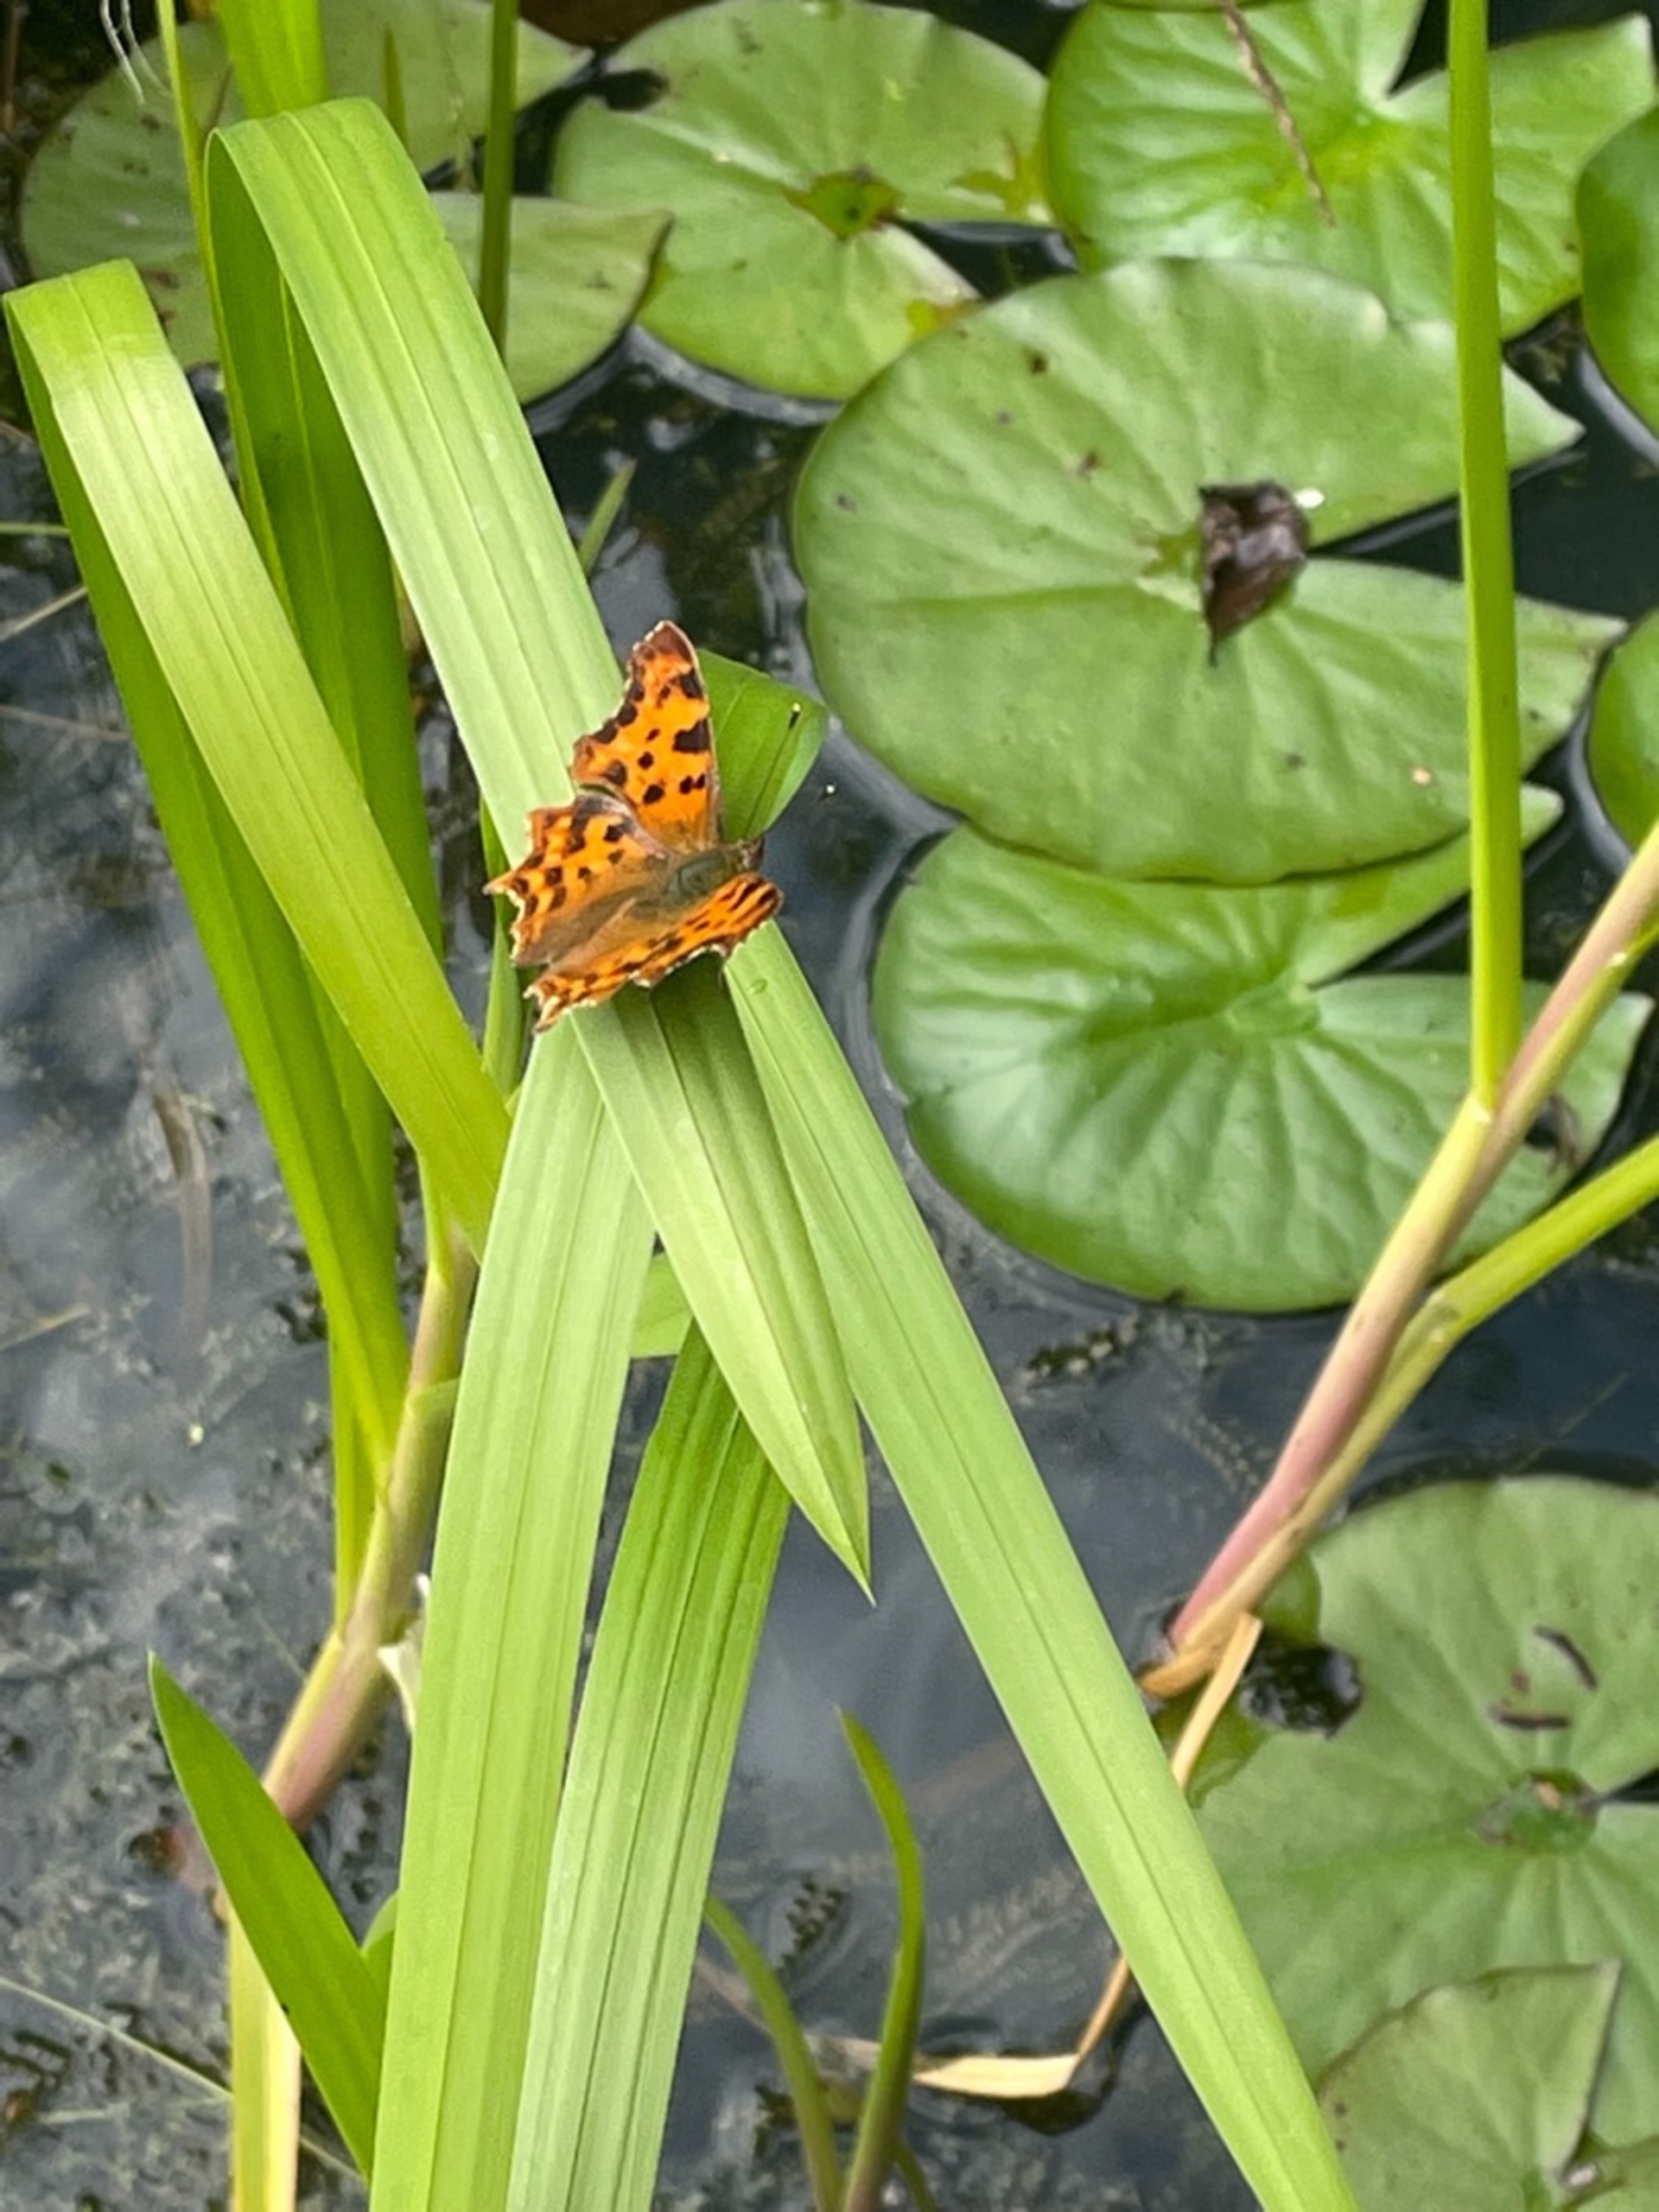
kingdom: Animalia
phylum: Arthropoda
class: Insecta
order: Lepidoptera
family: Nymphalidae
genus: Polygonia
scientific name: Polygonia c-album
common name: Det hvide C
